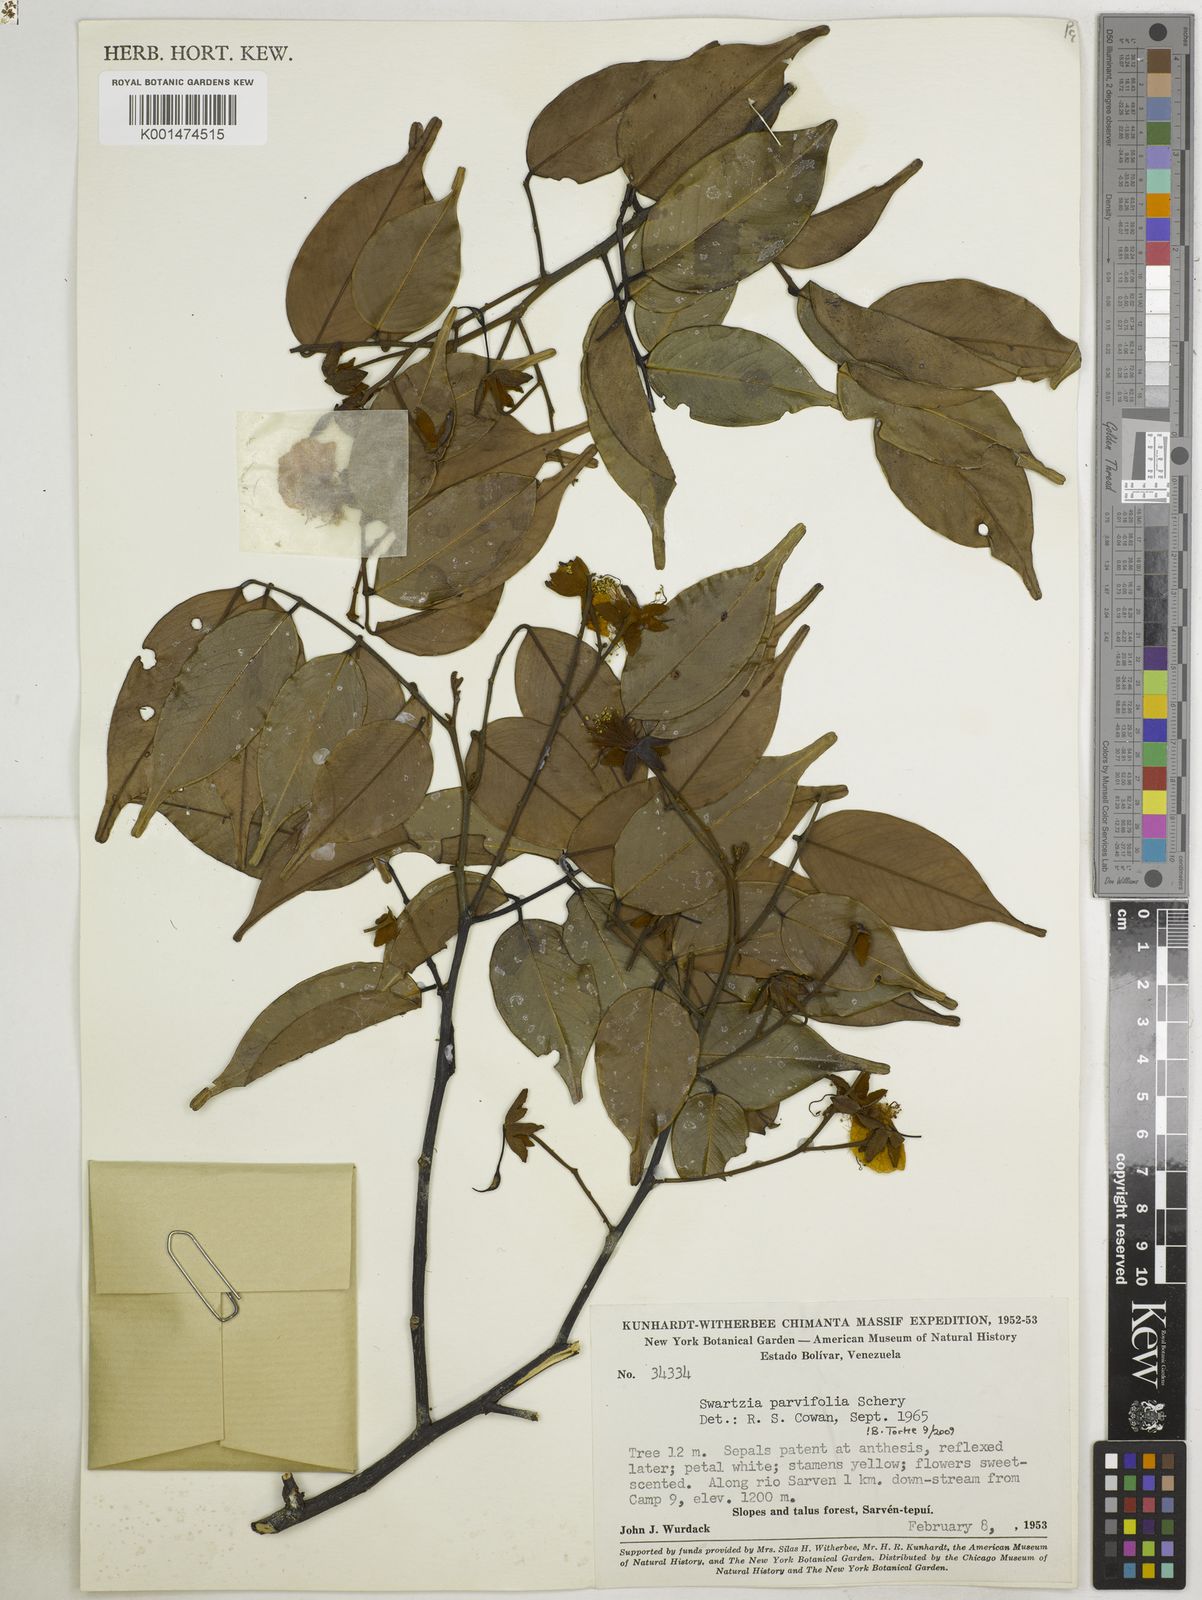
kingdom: Plantae
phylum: Tracheophyta
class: Magnoliopsida
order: Fabales
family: Fabaceae
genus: Swartzia
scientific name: Swartzia parvifolia
